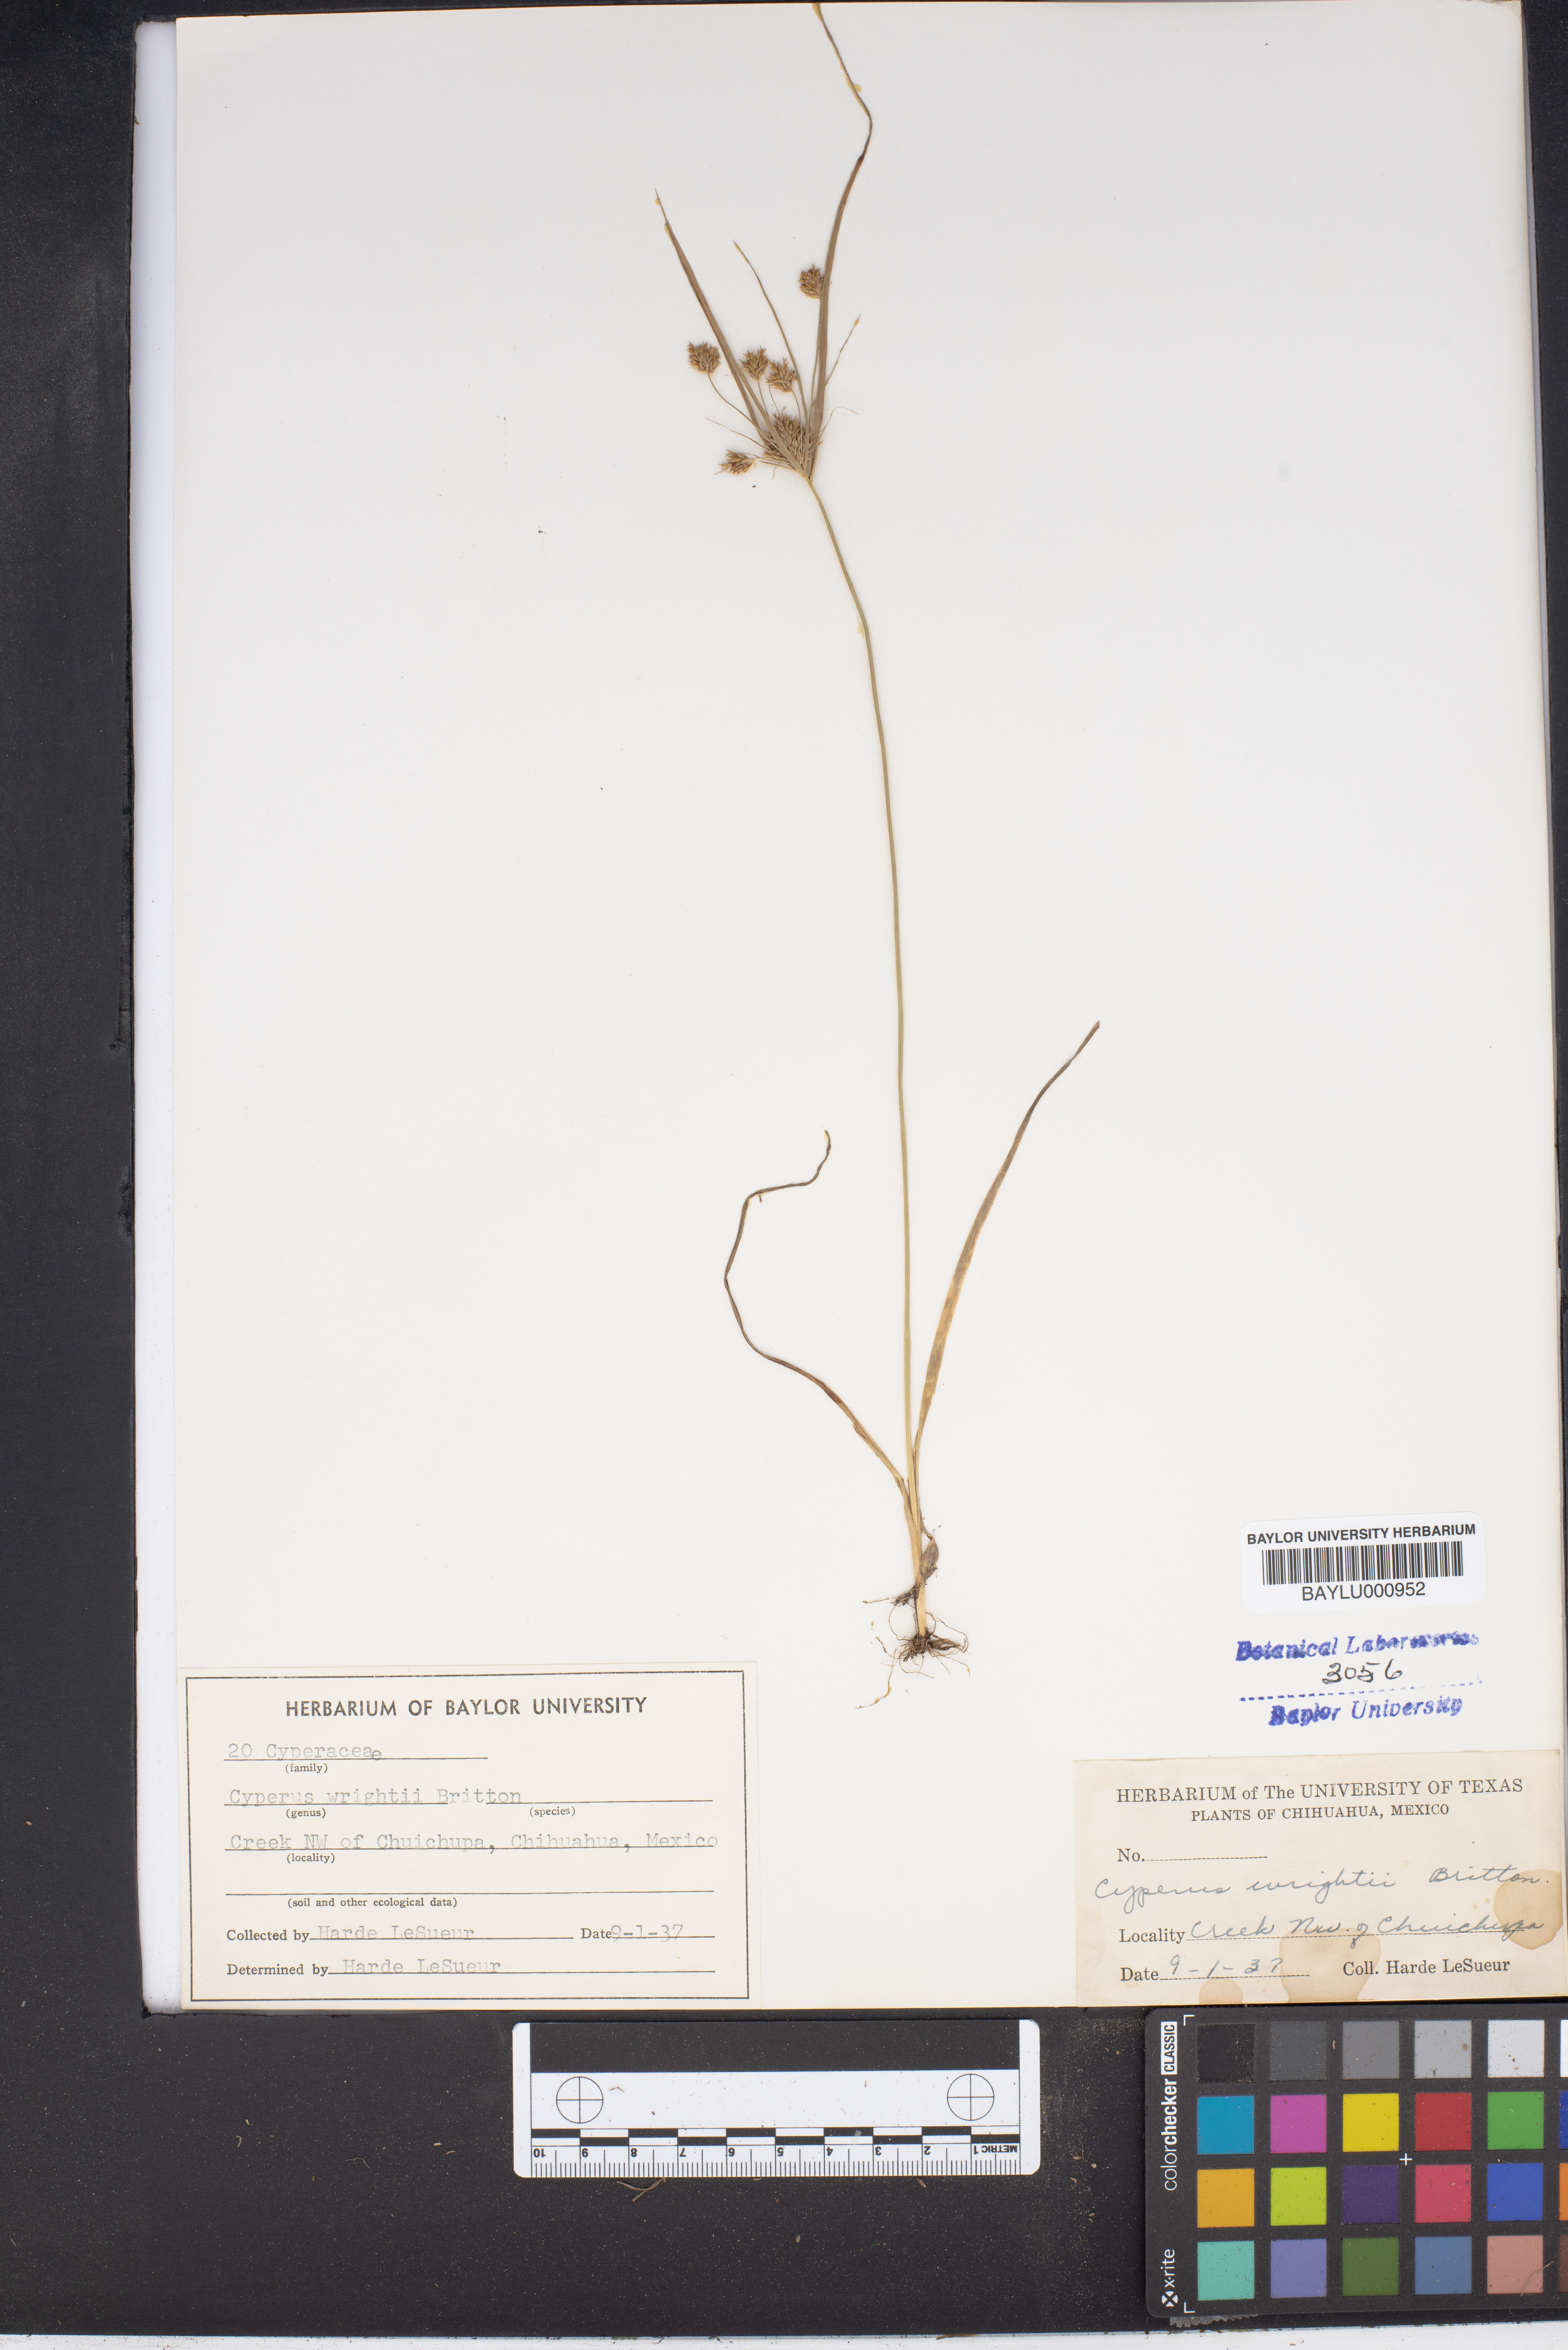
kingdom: Plantae
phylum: Tracheophyta
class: Liliopsida
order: Poales
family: Cyperaceae
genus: Cyperus
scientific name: Cyperus dipsaceus
